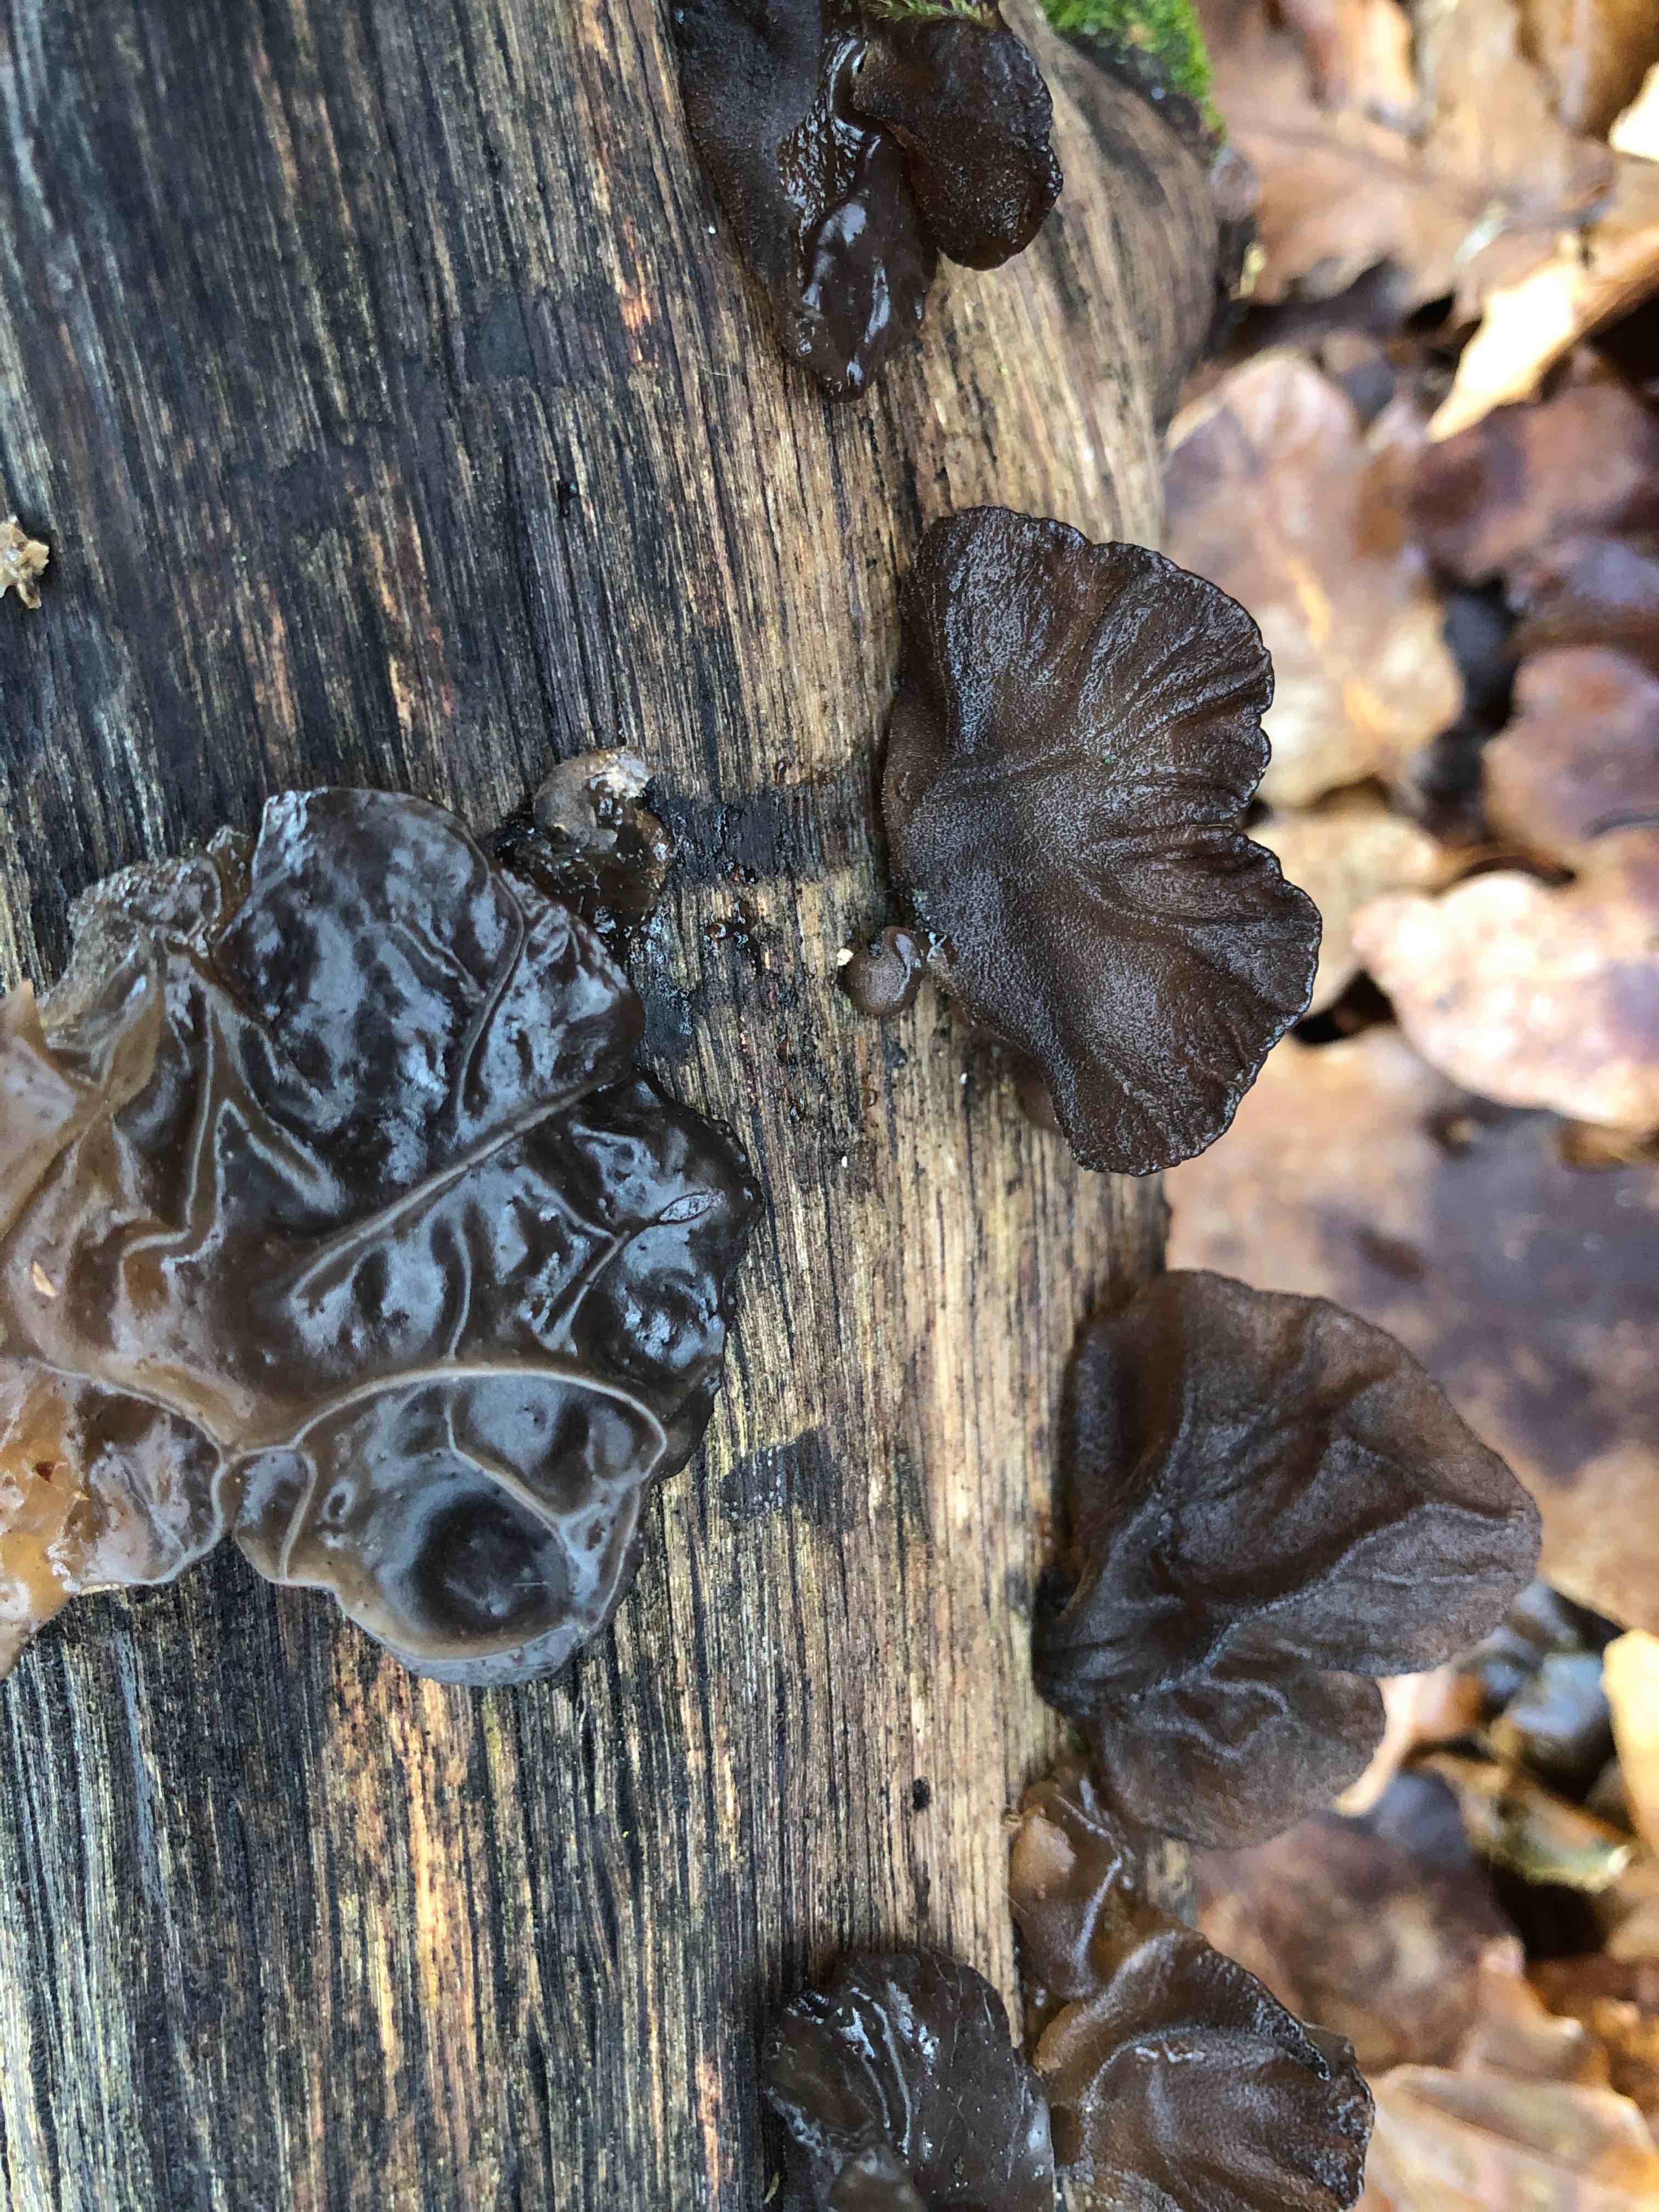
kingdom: Fungi
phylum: Basidiomycota
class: Agaricomycetes
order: Auriculariales
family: Auriculariaceae
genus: Exidia
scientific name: Exidia glandulosa
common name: ege-bævretop
